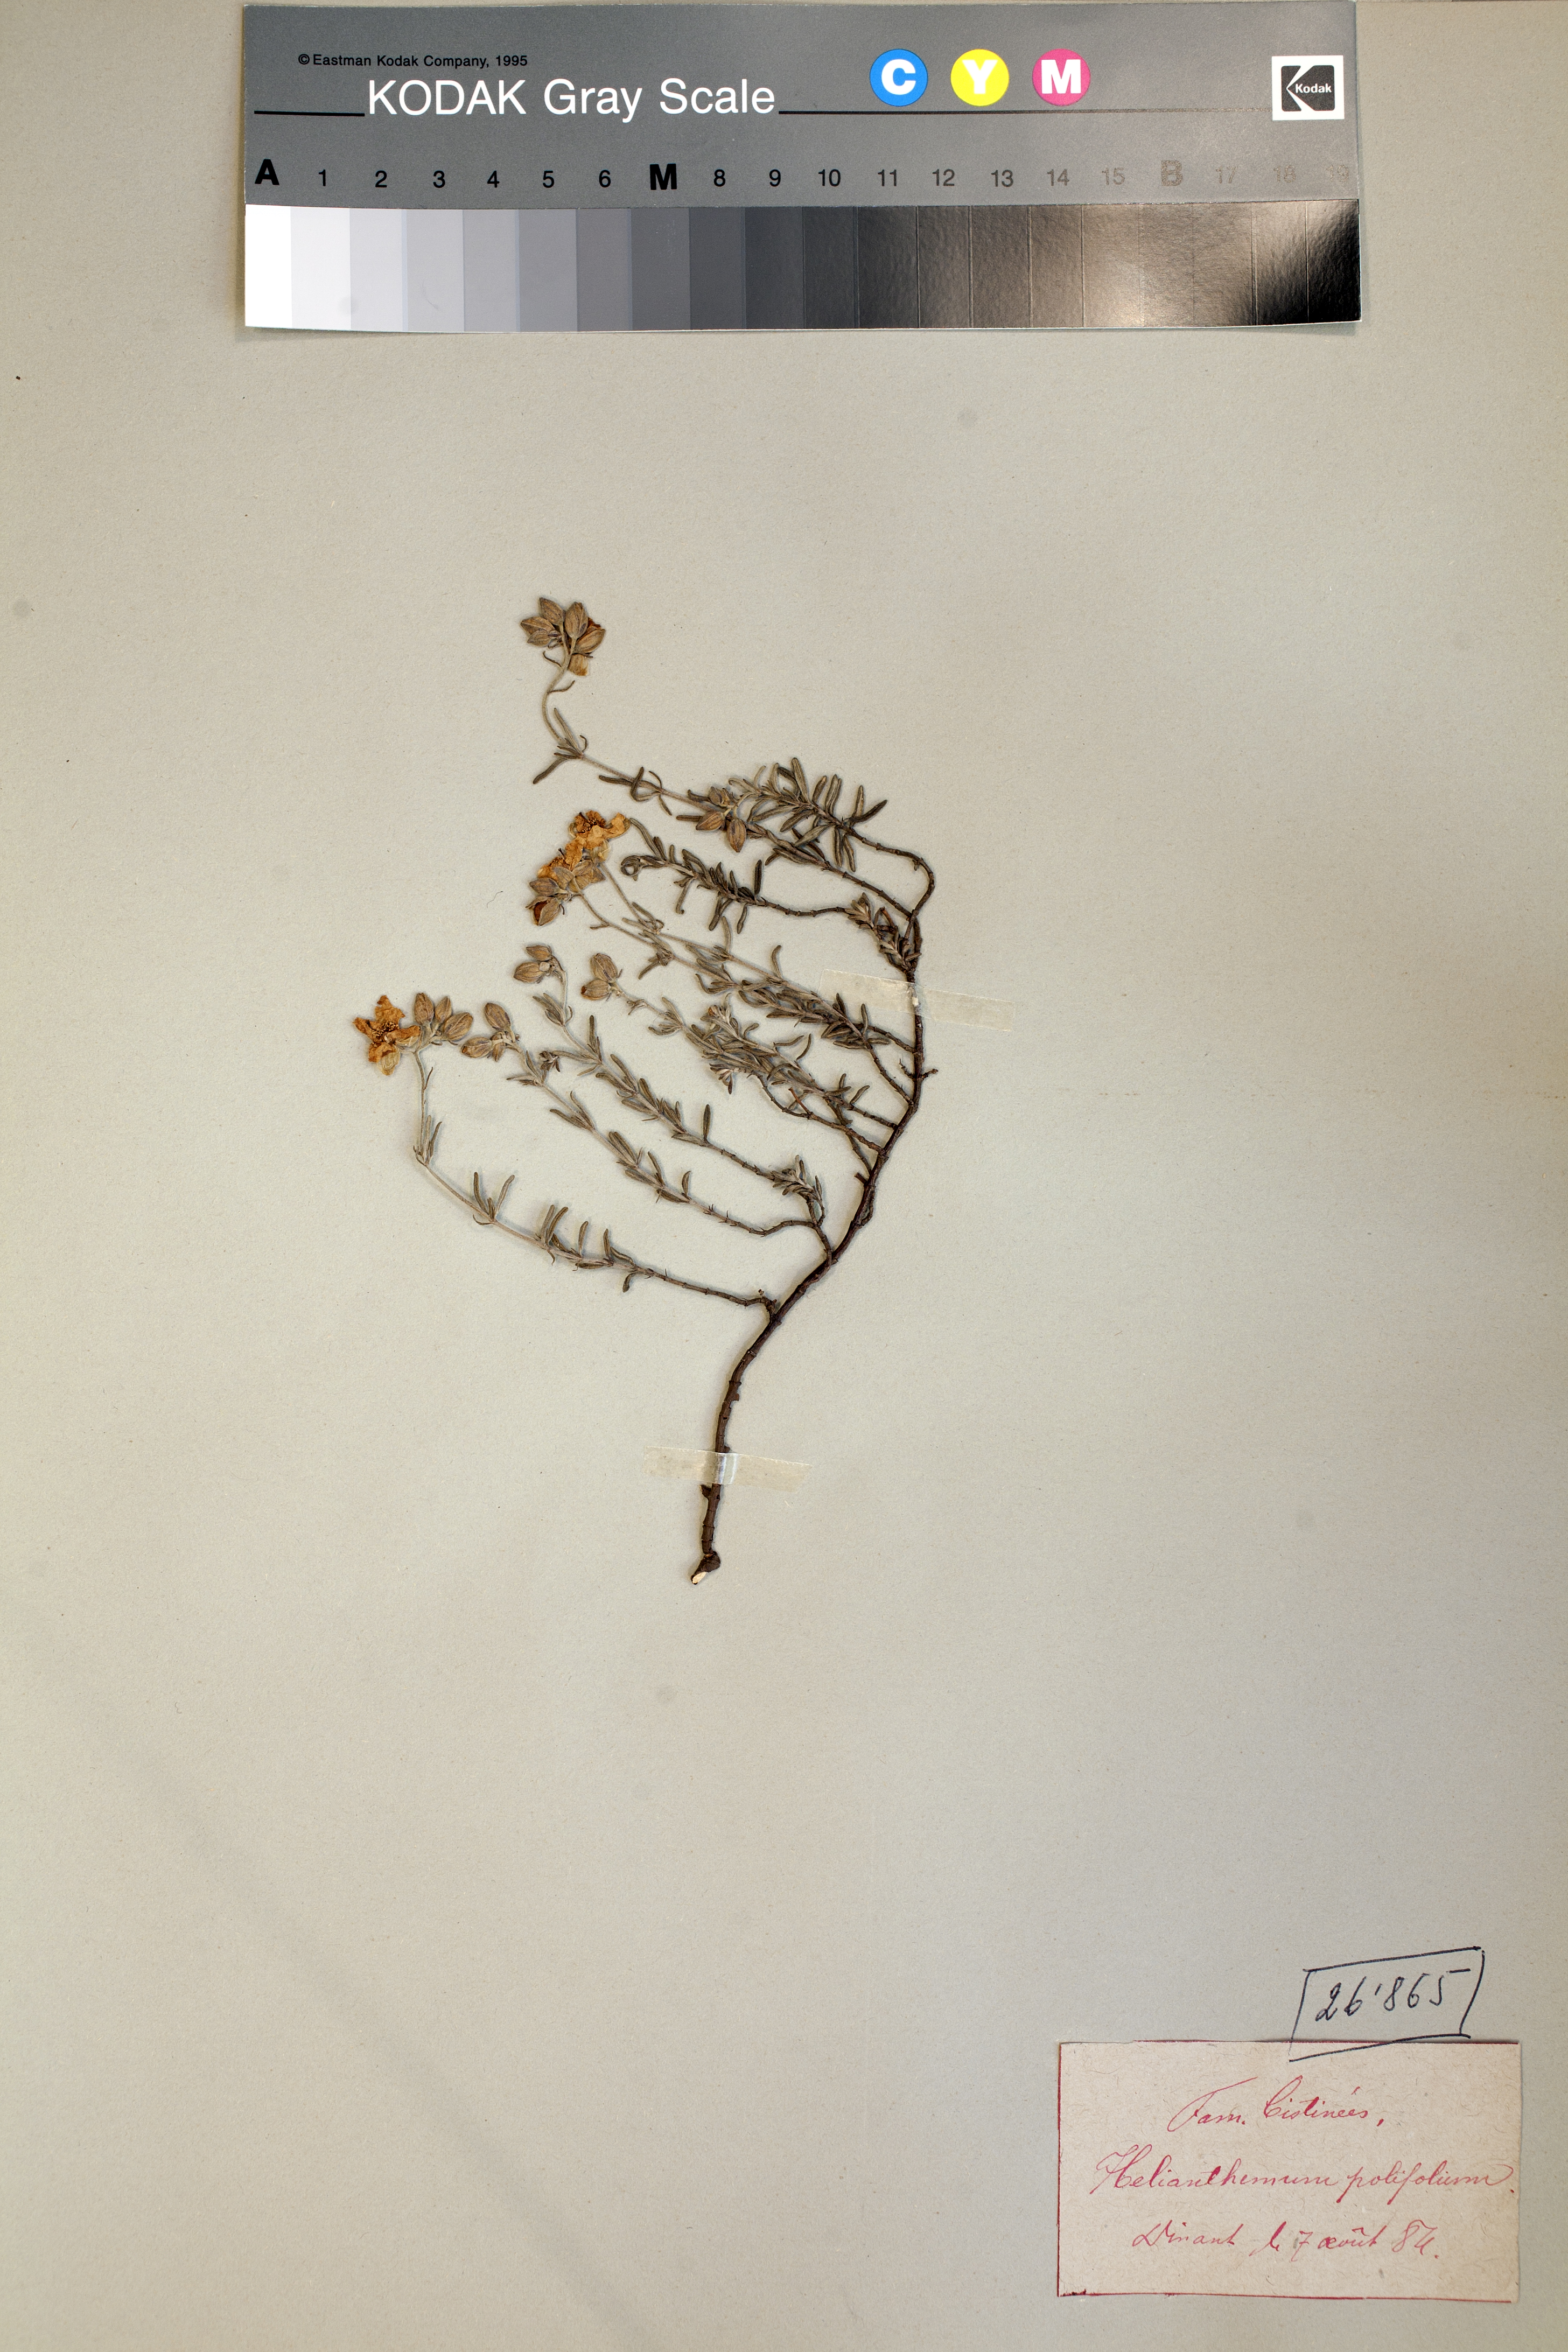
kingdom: Plantae
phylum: Tracheophyta
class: Magnoliopsida
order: Malvales
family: Cistaceae
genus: Helianthemum
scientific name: Helianthemum apenninum
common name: White rock-rose
